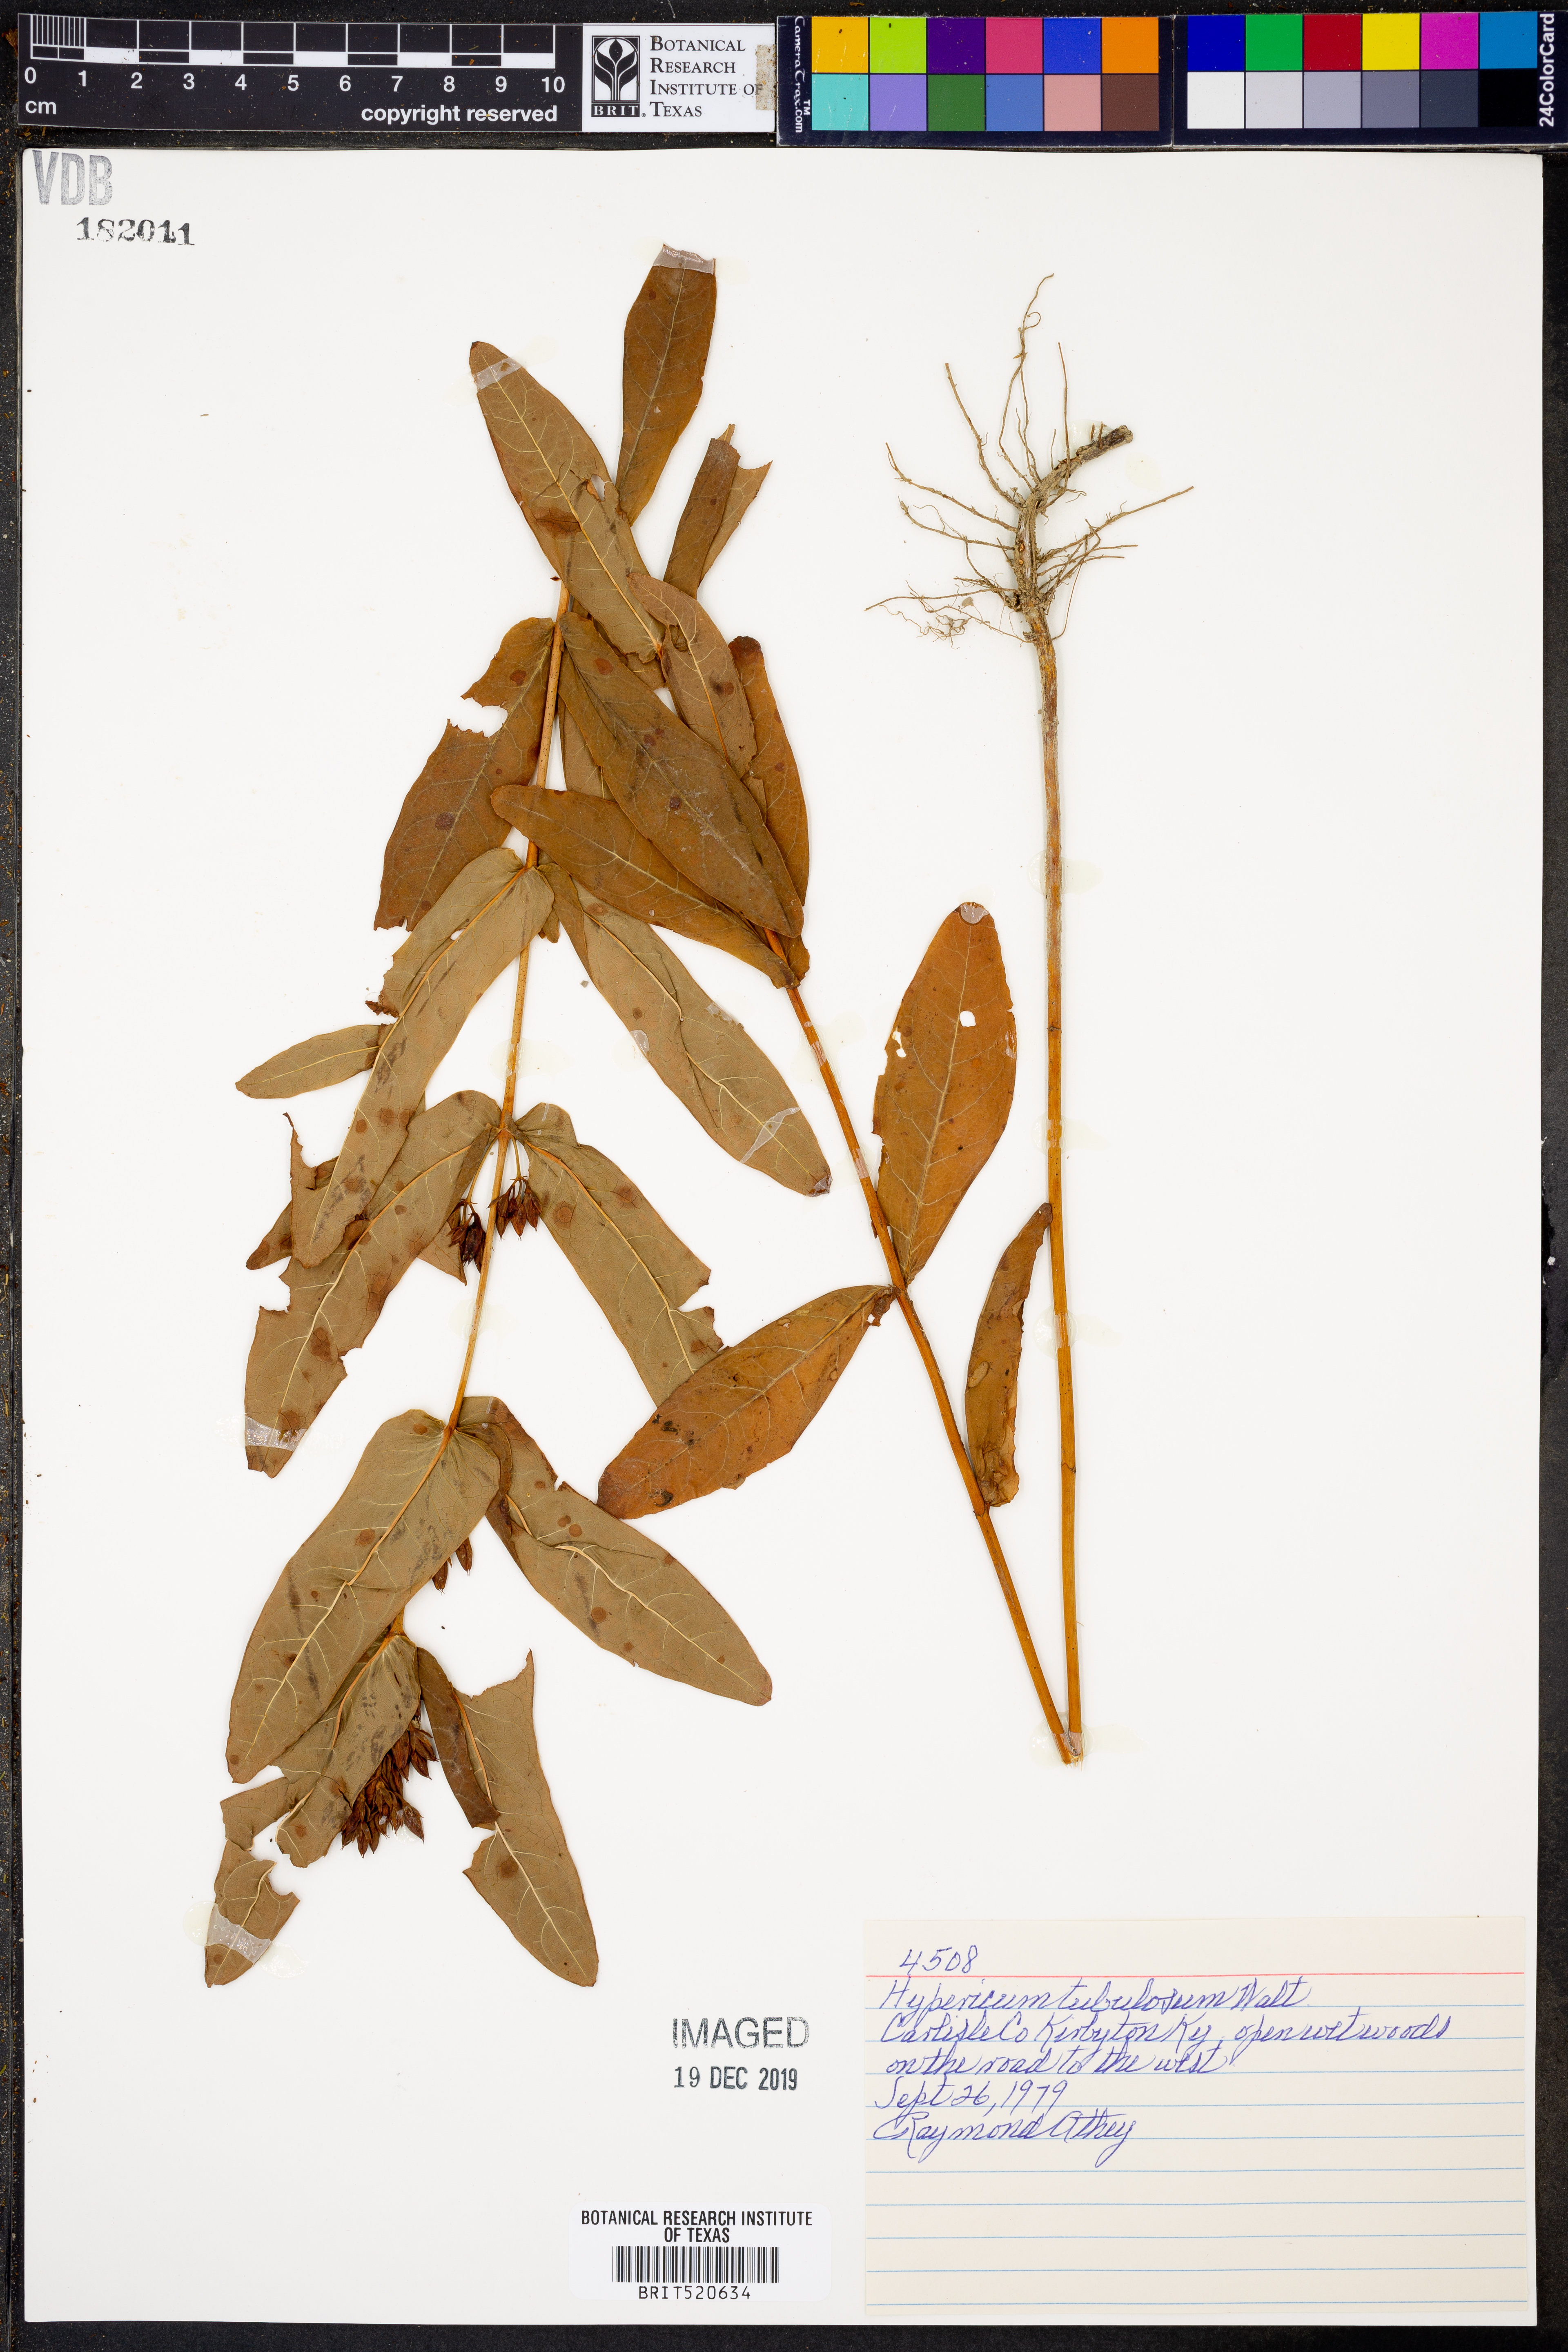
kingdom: Plantae
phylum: Tracheophyta
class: Magnoliopsida
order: Malpighiales
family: Hypericaceae
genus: Triadenum
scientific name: Triadenum tubulosum
